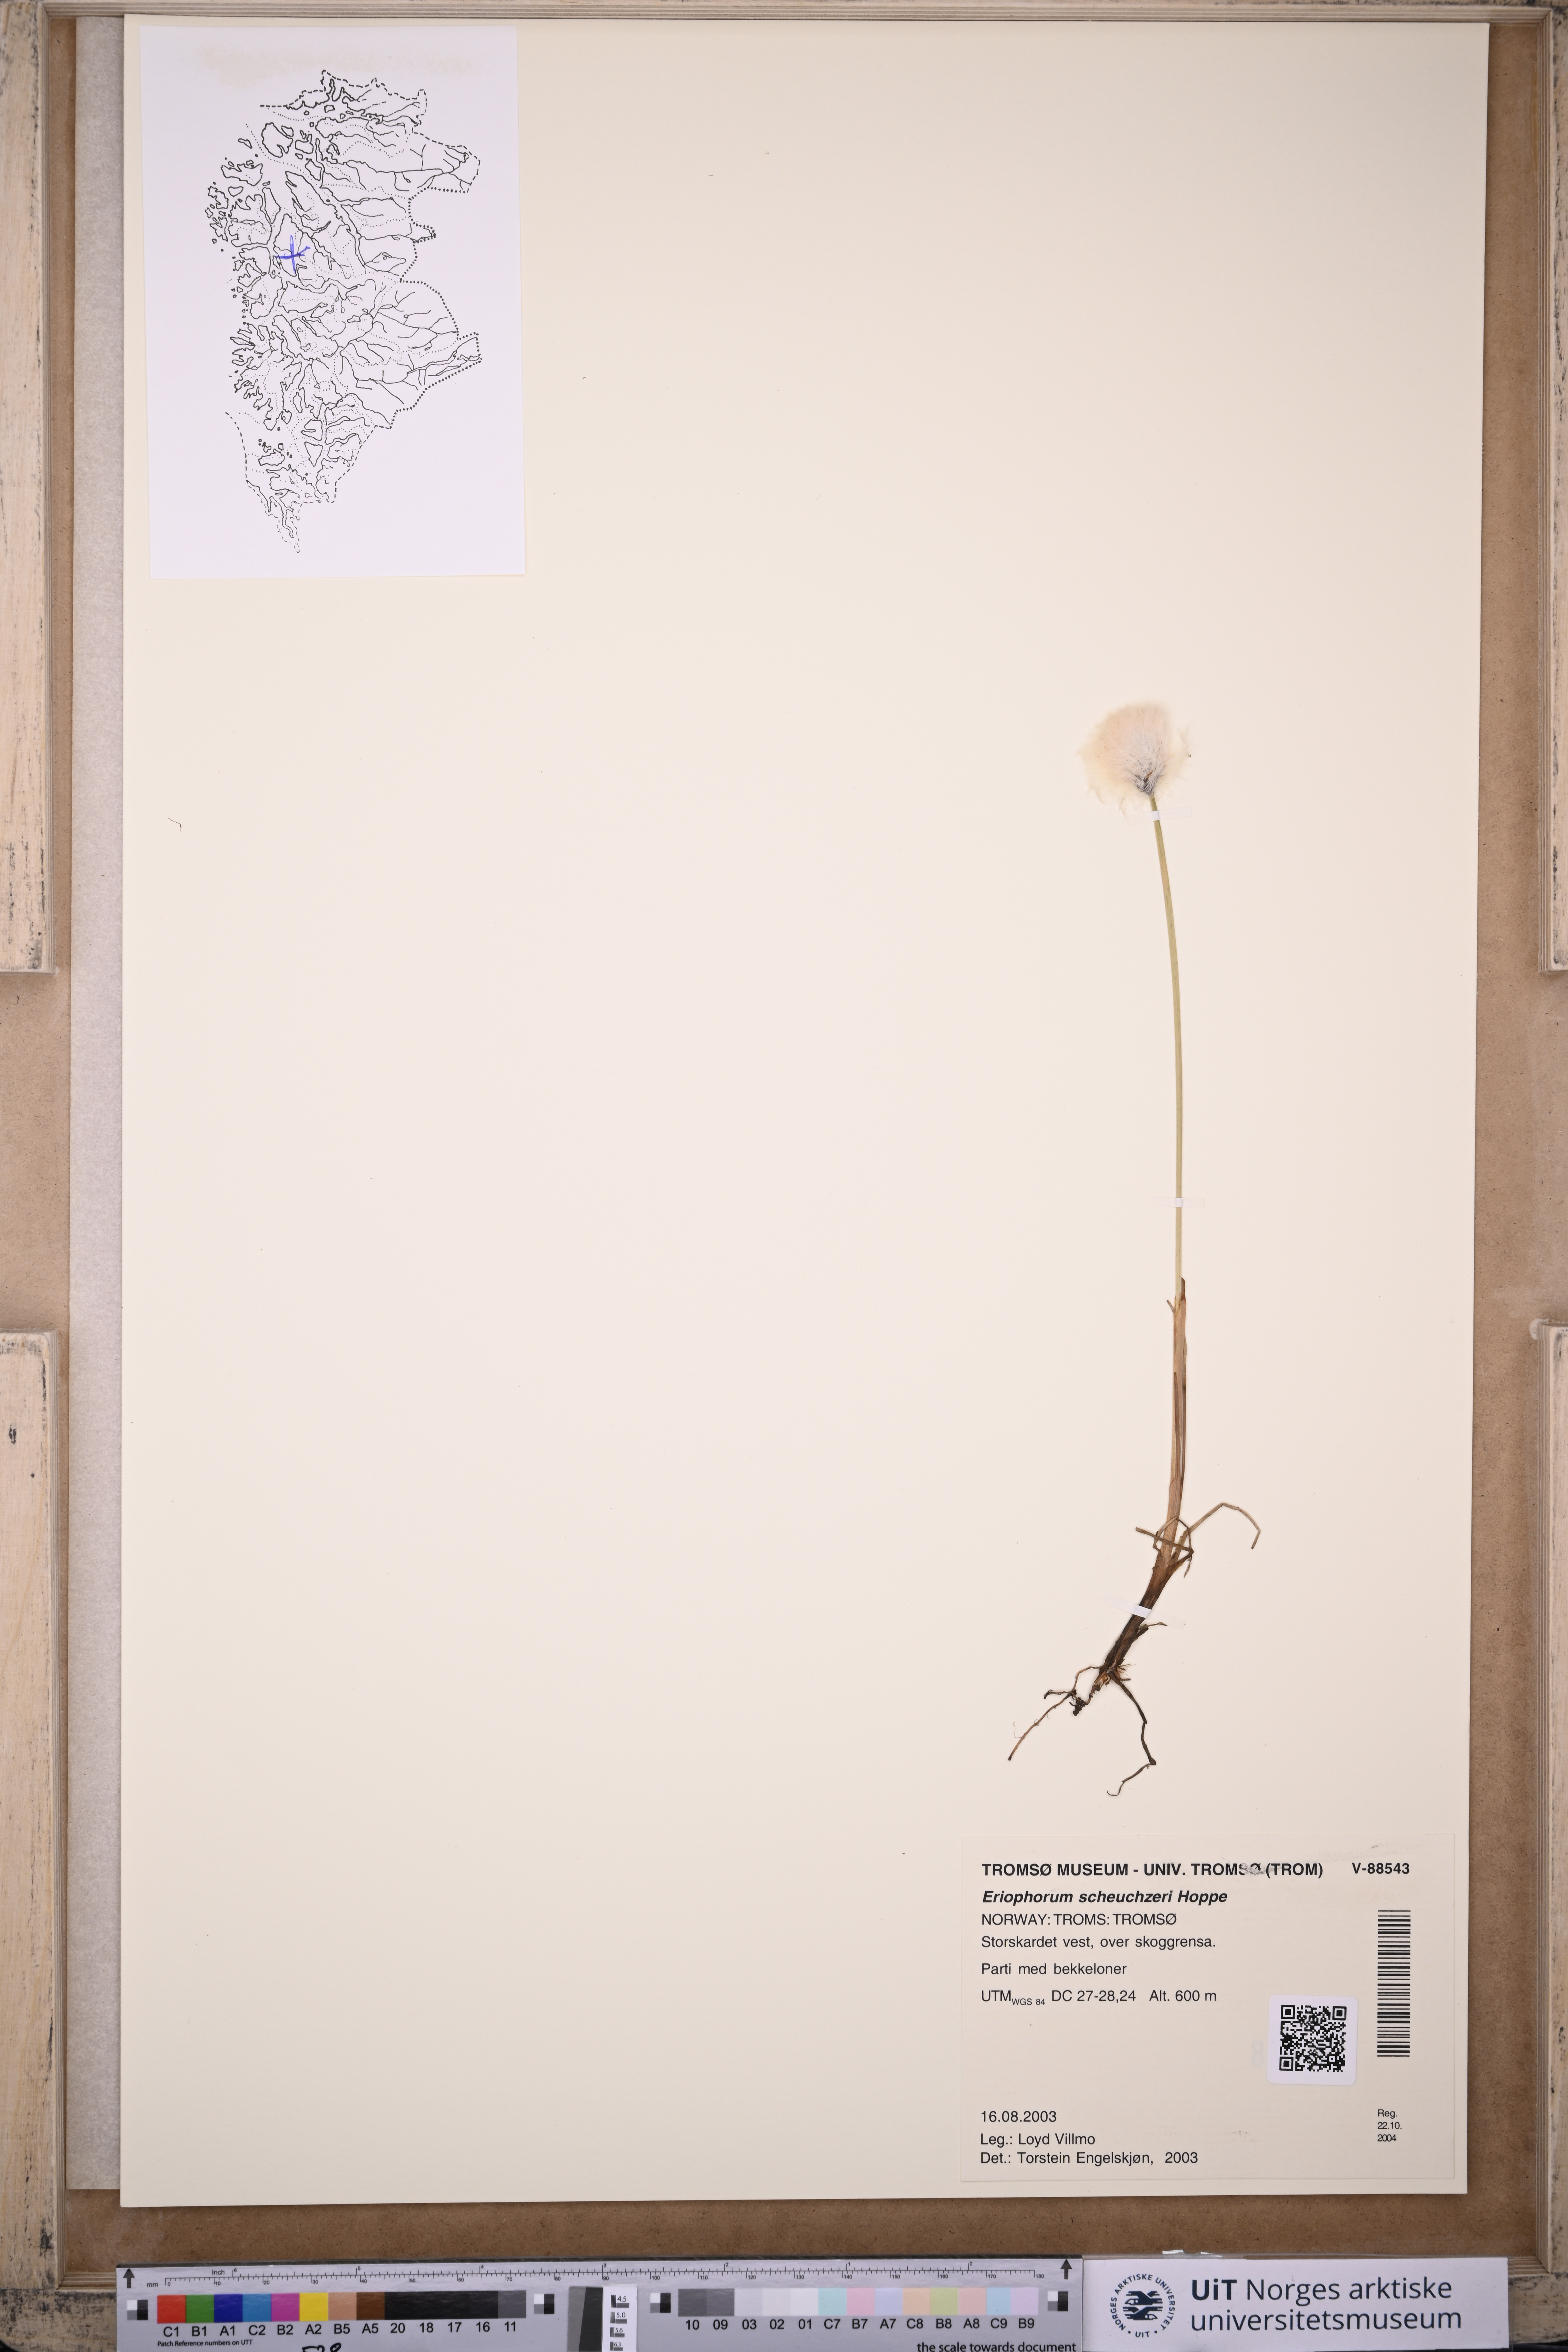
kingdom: Plantae
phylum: Tracheophyta
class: Liliopsida
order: Poales
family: Cyperaceae
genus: Eriophorum
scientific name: Eriophorum scheuchzeri
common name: Scheuchzer's cottongrass
